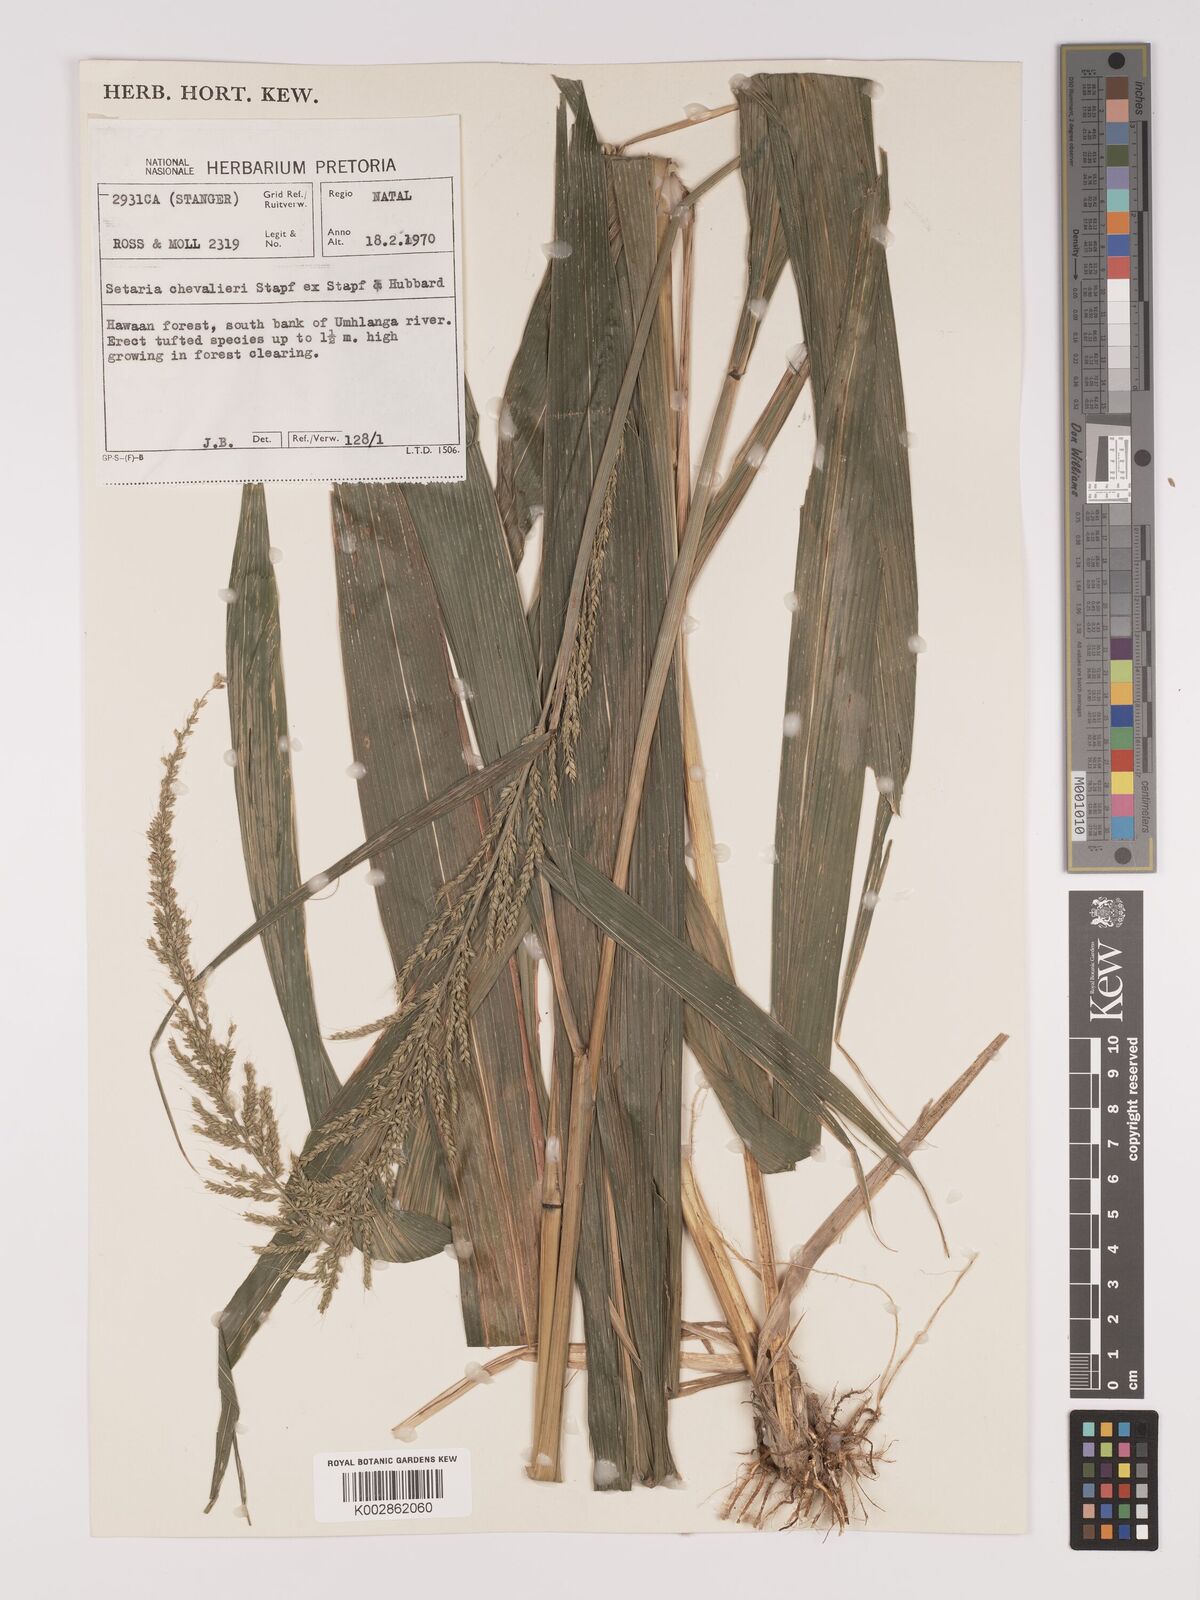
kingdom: Plantae
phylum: Tracheophyta
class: Liliopsida
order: Poales
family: Poaceae
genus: Setaria
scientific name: Setaria megaphylla
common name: Bigleaf bristlegrass
